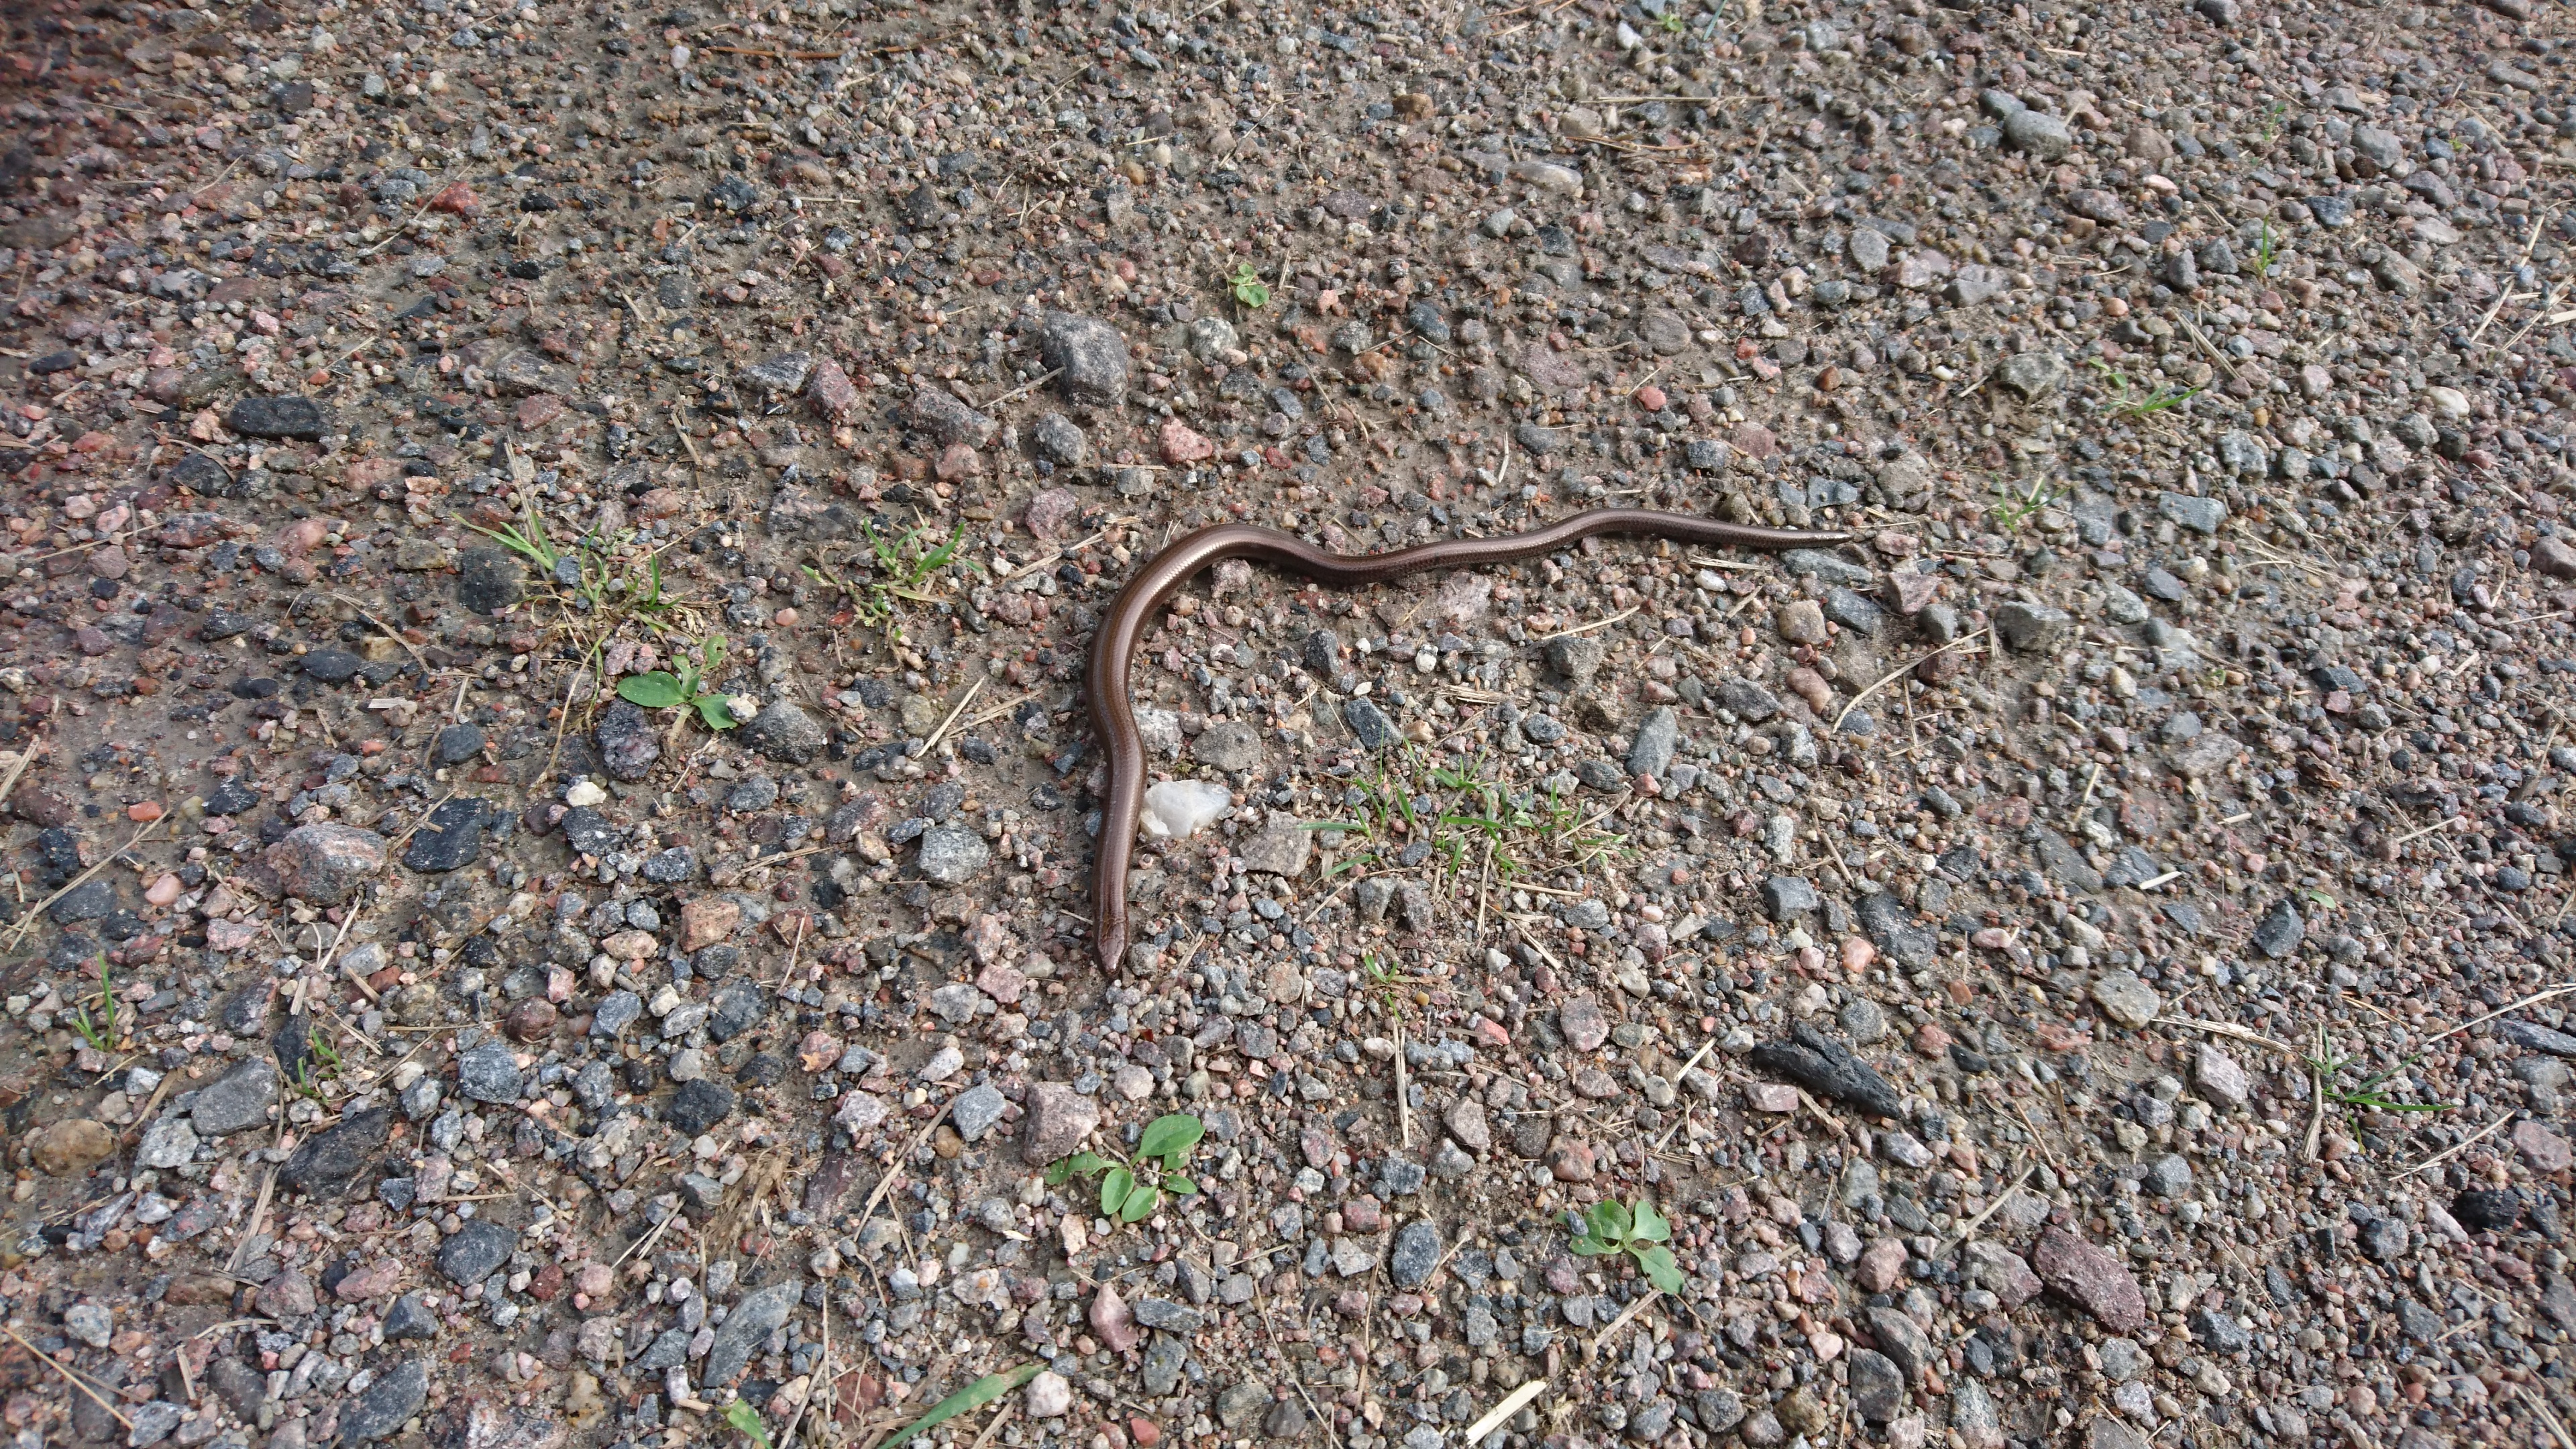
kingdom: Animalia
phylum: Chordata
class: Squamata
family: Anguidae
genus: Anguis
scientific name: Anguis colchica
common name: Slow worm
